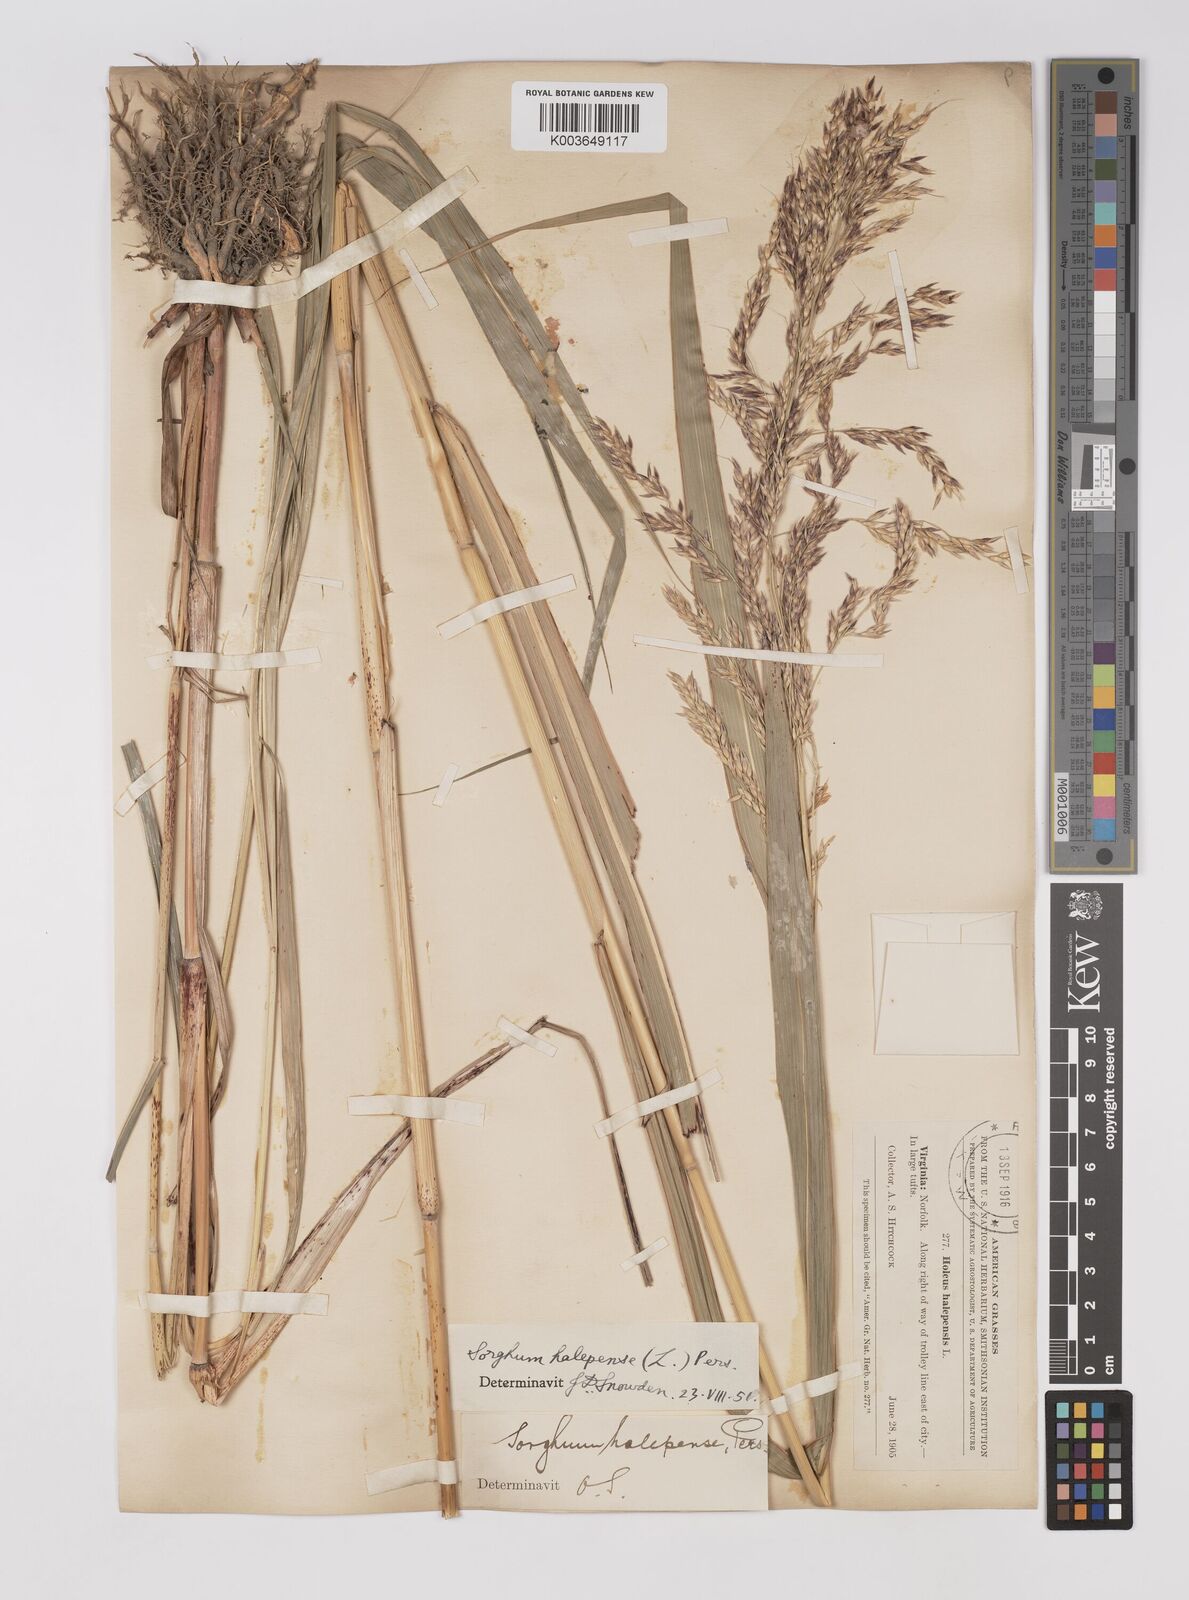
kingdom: Plantae
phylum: Tracheophyta
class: Liliopsida
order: Poales
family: Poaceae
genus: Sorghum
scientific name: Sorghum halepense
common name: Johnson-grass
